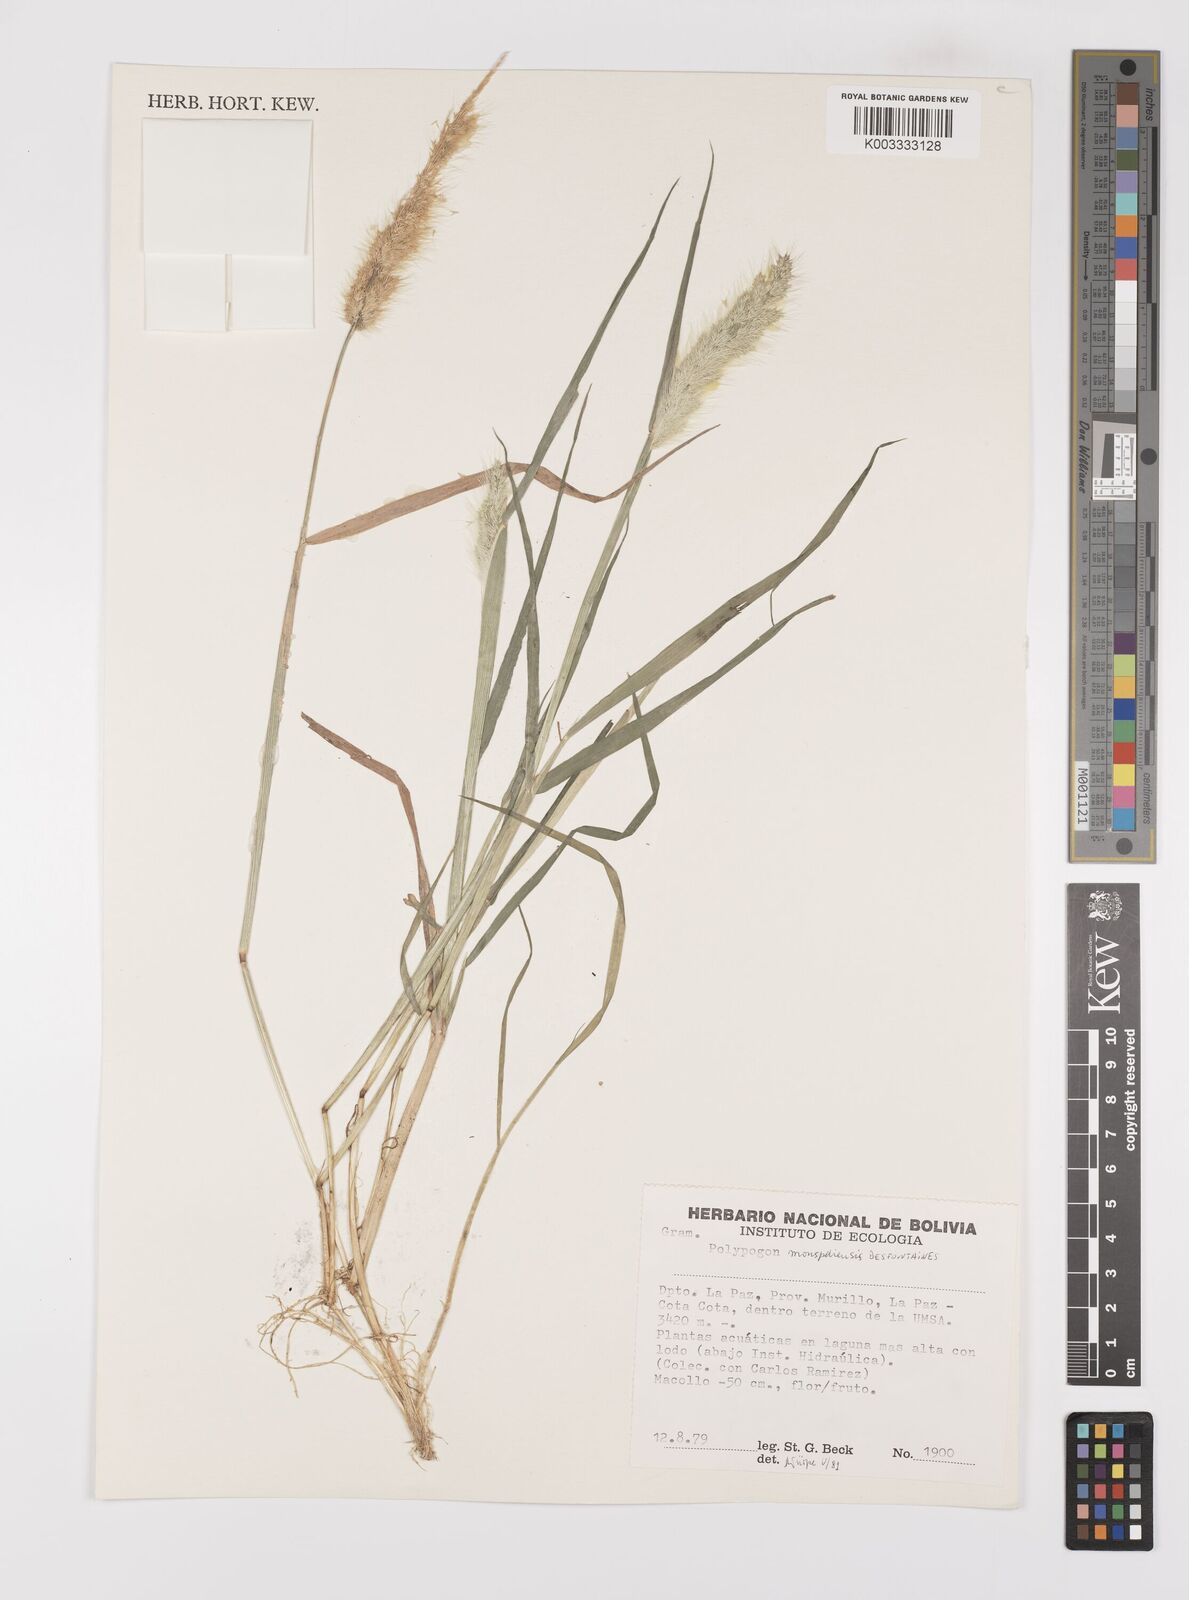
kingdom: Plantae
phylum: Tracheophyta
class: Liliopsida
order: Poales
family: Poaceae
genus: Polypogon
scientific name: Polypogon monspeliensis
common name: Annual rabbitsfoot grass
